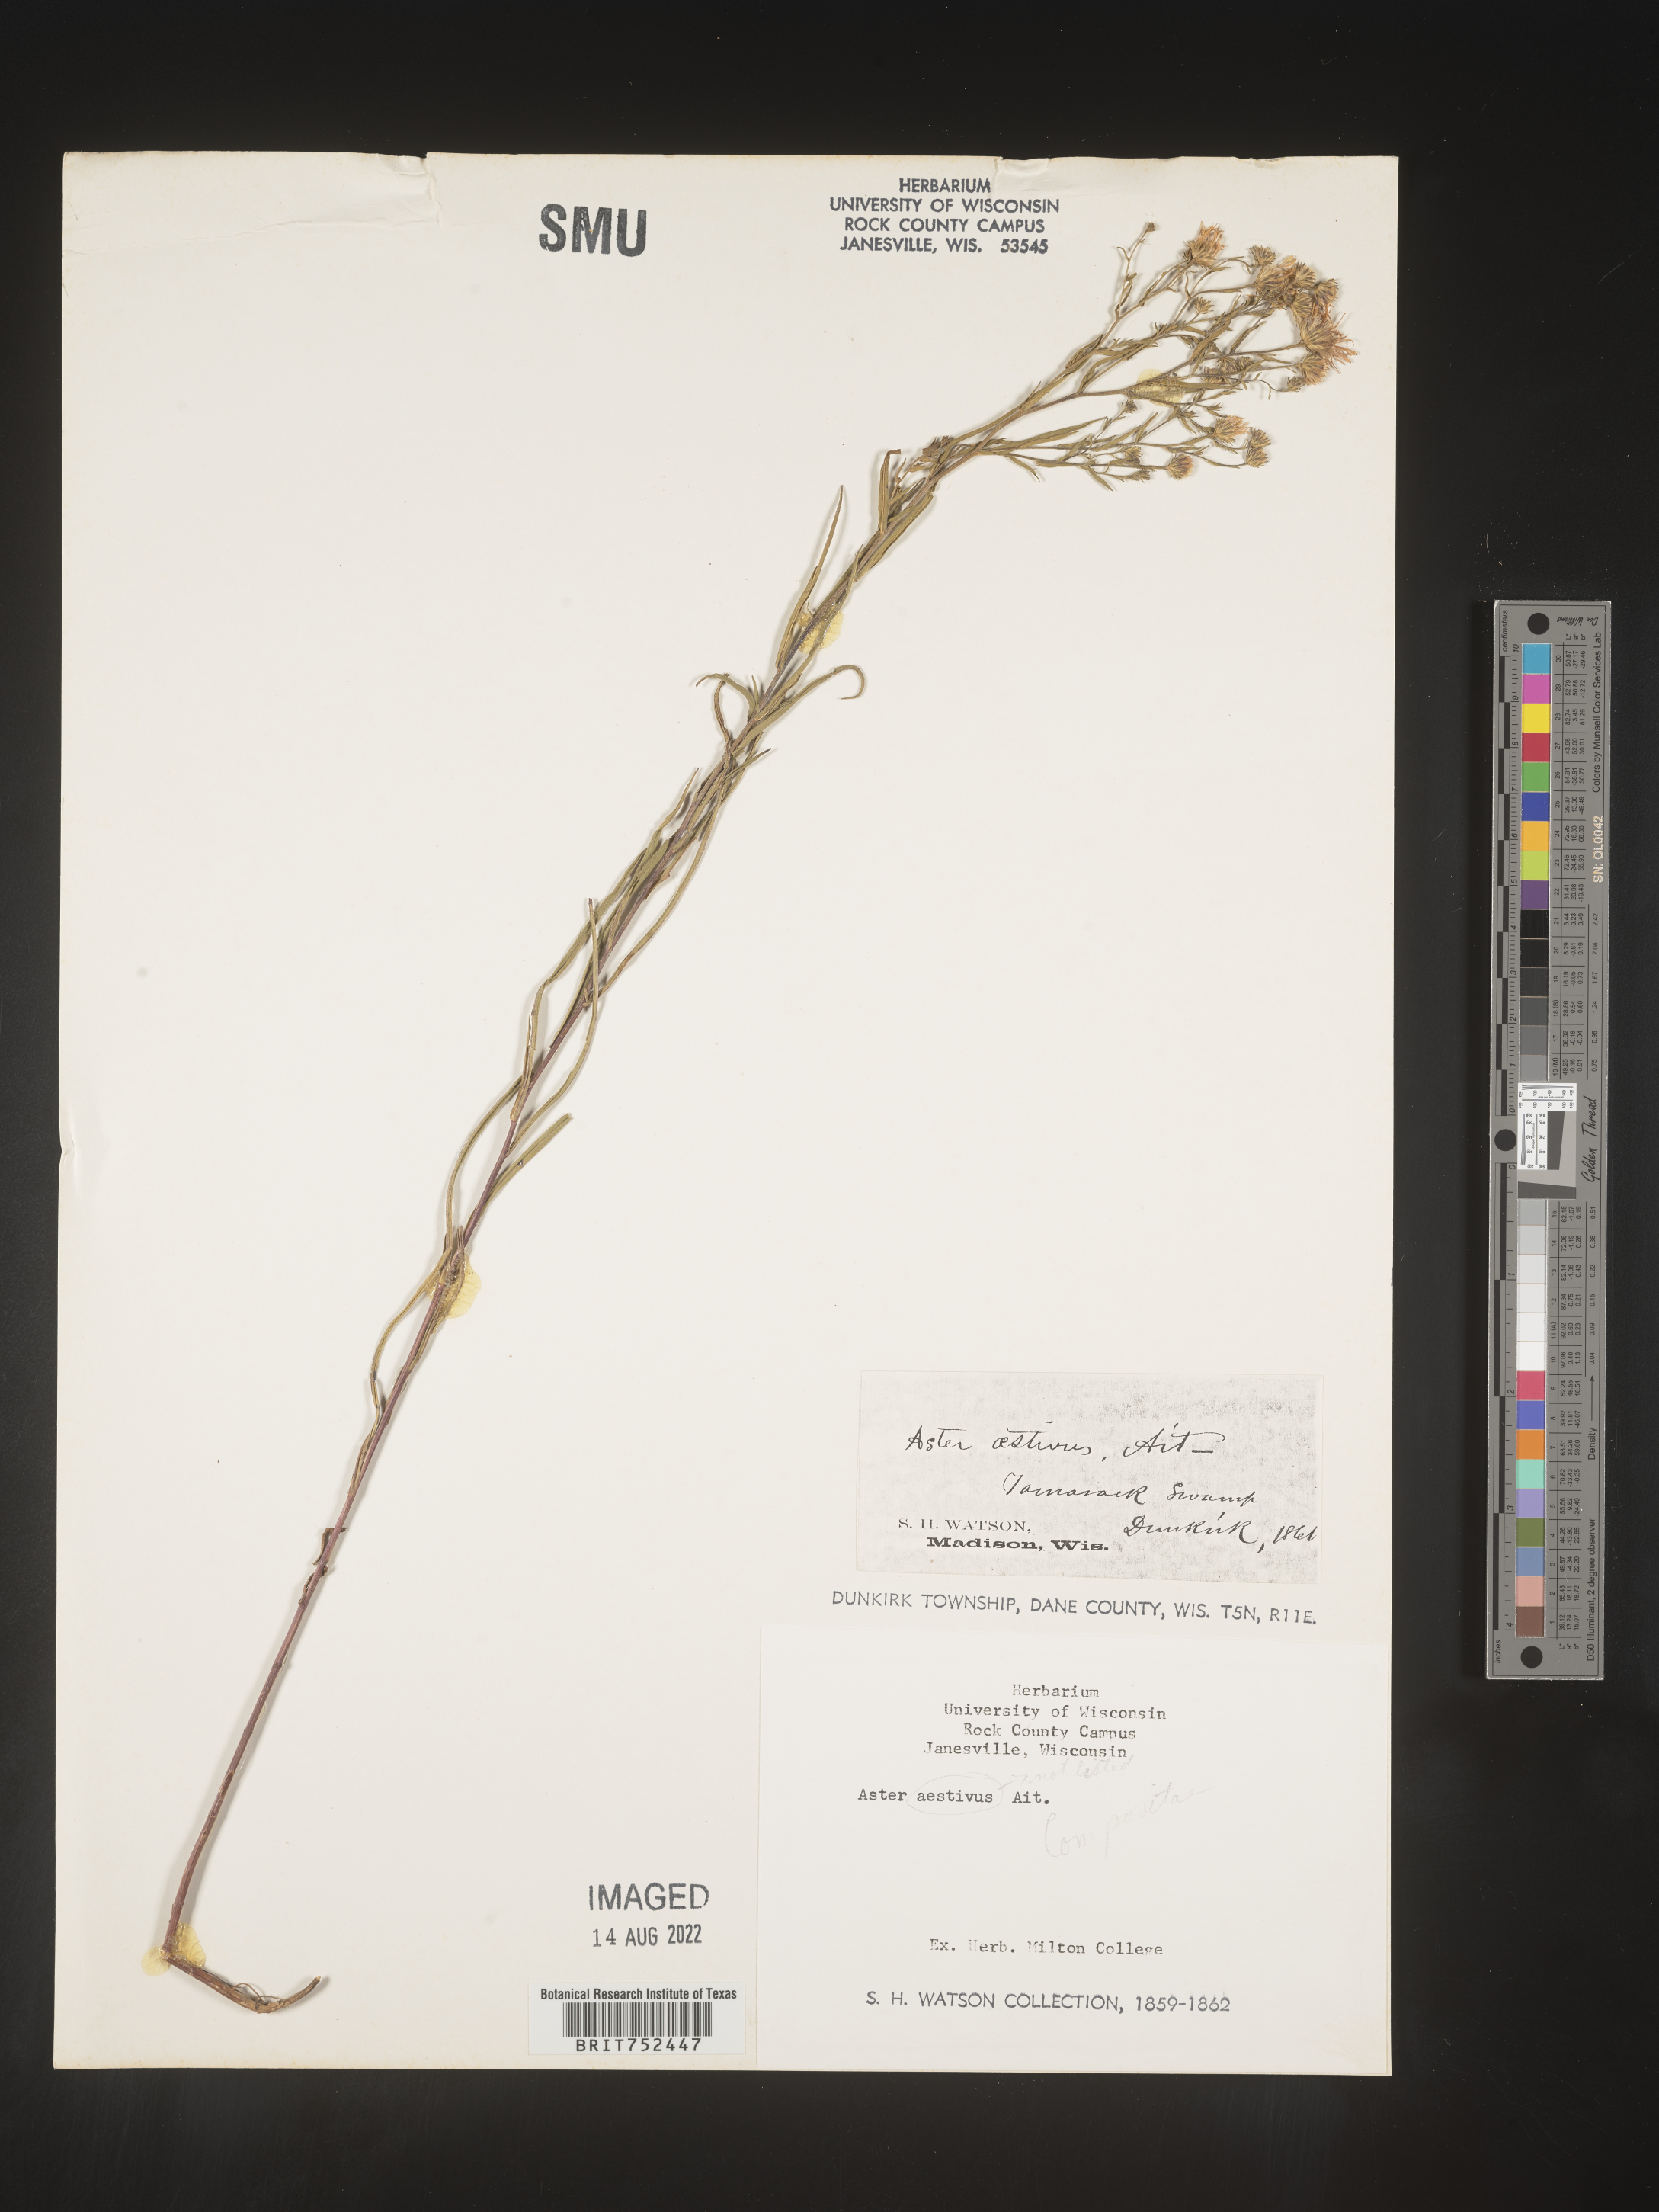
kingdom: Plantae
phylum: Tracheophyta
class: Magnoliopsida
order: Asterales
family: Asteraceae
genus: Aster
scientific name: Aster aestivus
